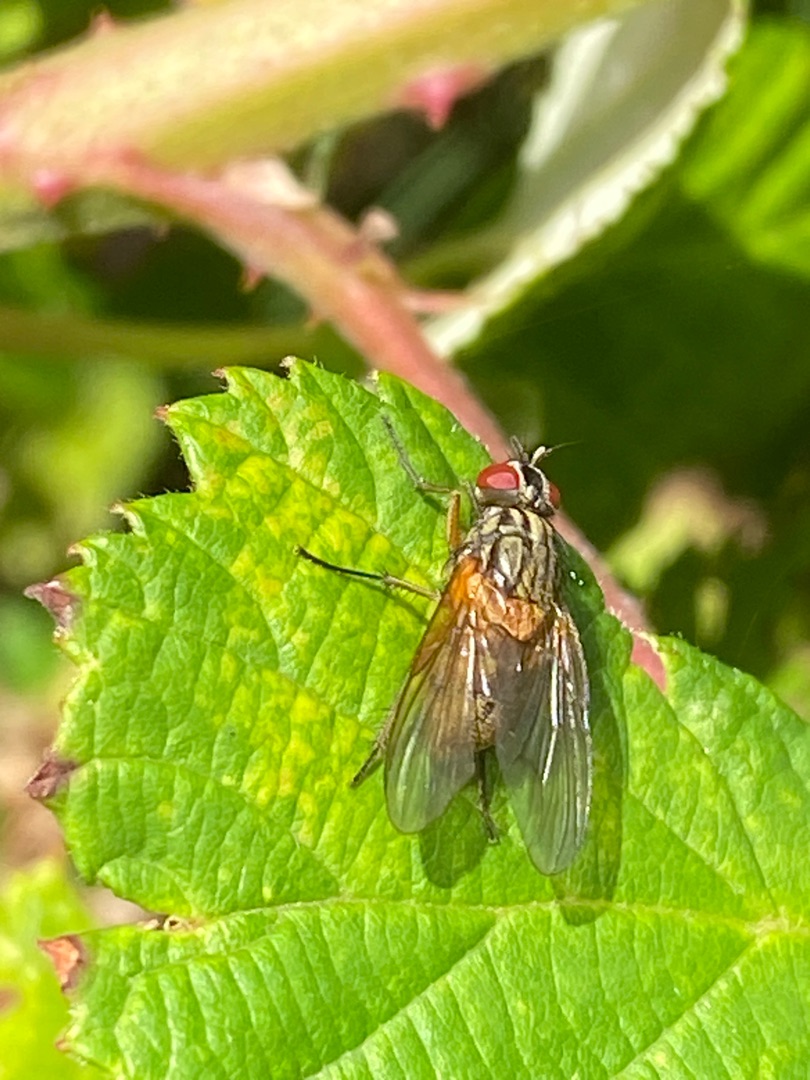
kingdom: Animalia
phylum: Arthropoda
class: Insecta
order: Diptera
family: Muscidae
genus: Mydaea
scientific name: Mydaea corni
